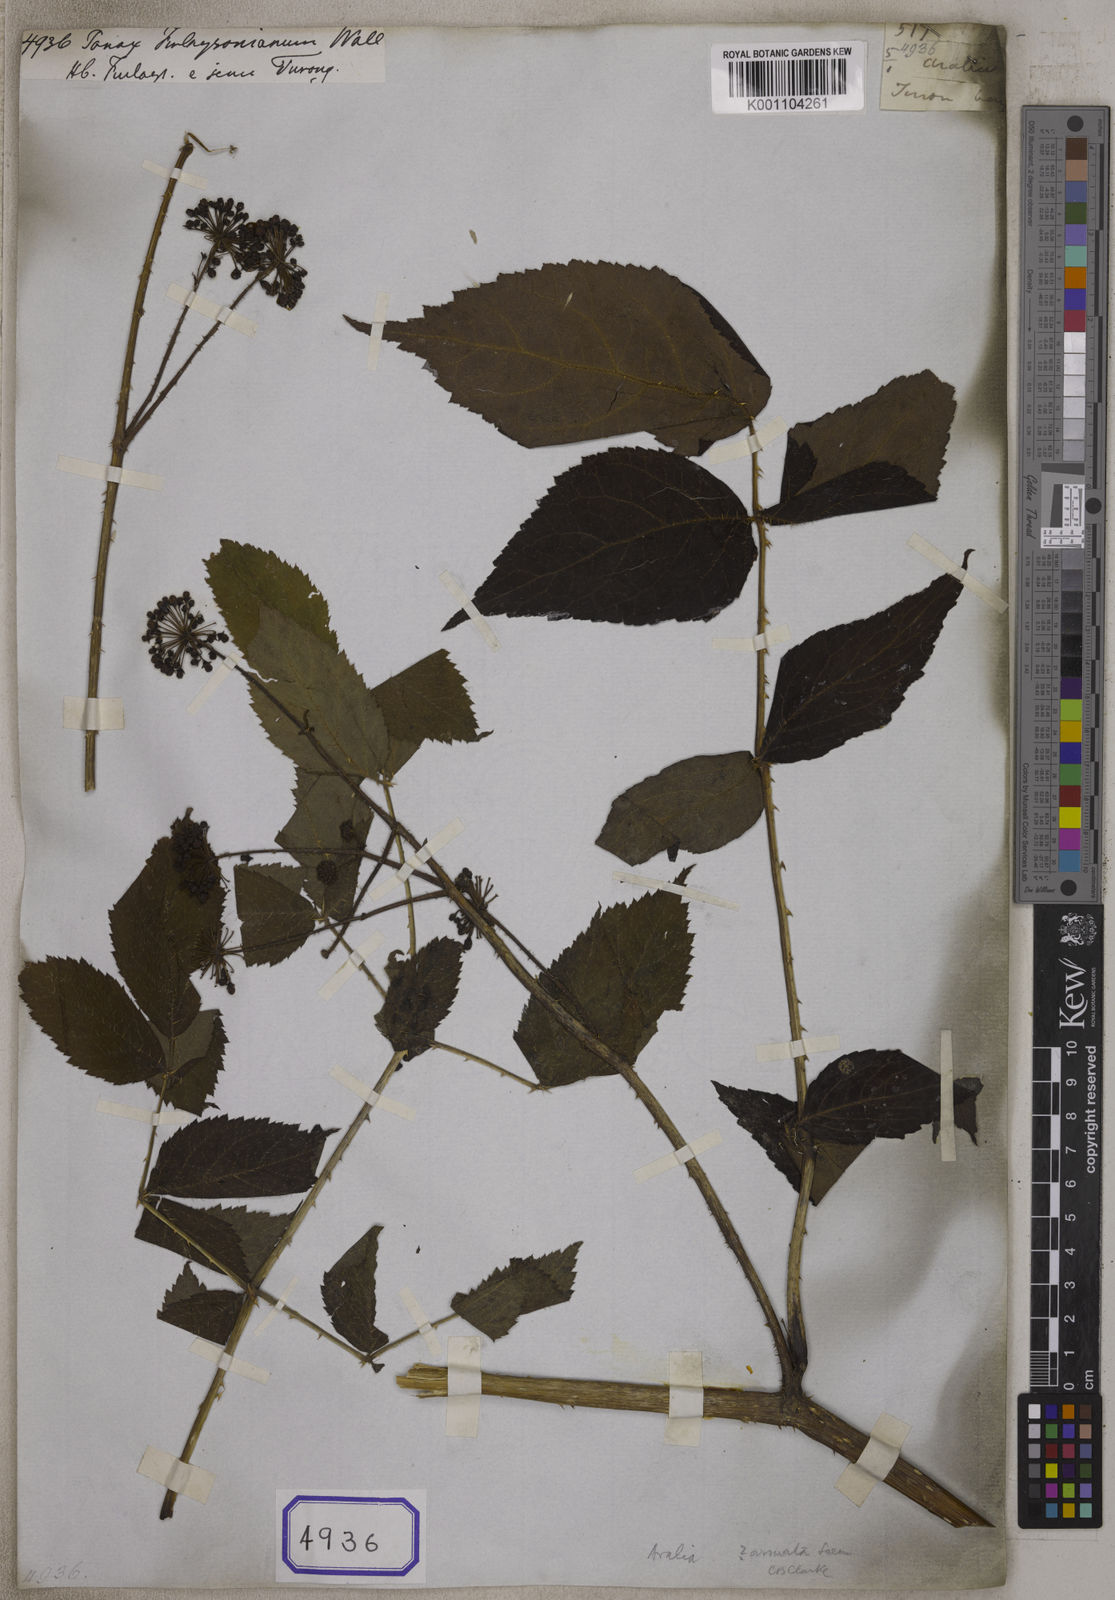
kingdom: Plantae
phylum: Tracheophyta
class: Magnoliopsida
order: Apiales
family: Araliaceae
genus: Panax
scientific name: Panax
